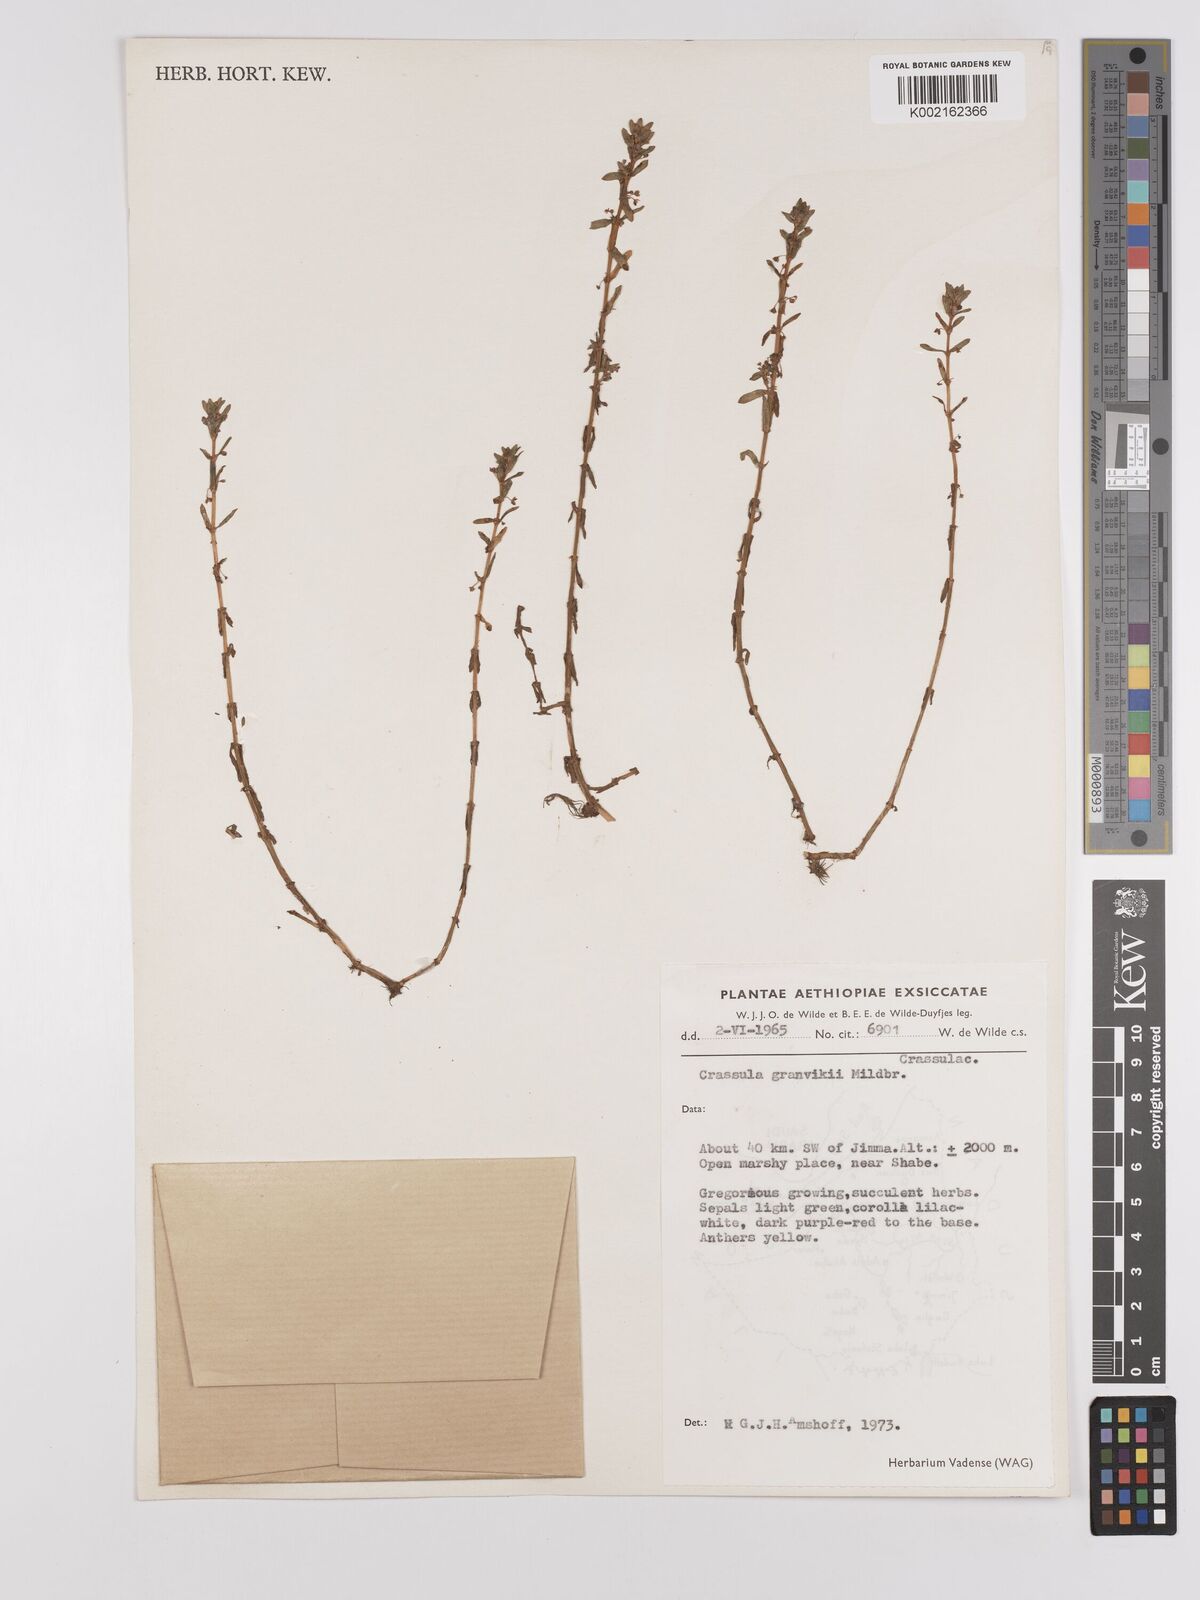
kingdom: Plantae
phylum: Tracheophyta
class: Magnoliopsida
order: Saxifragales
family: Crassulaceae
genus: Crassula
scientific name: Crassula granvikii
